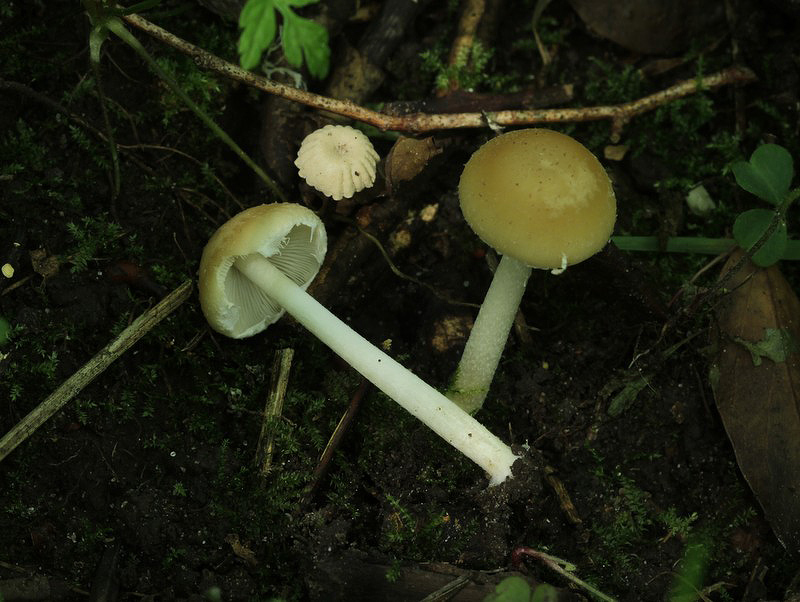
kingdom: Fungi
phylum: Basidiomycota
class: Agaricomycetes
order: Agaricales
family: Psathyrellaceae
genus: Candolleomyces
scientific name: Candolleomyces candolleanus
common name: Candolles mørkhat
